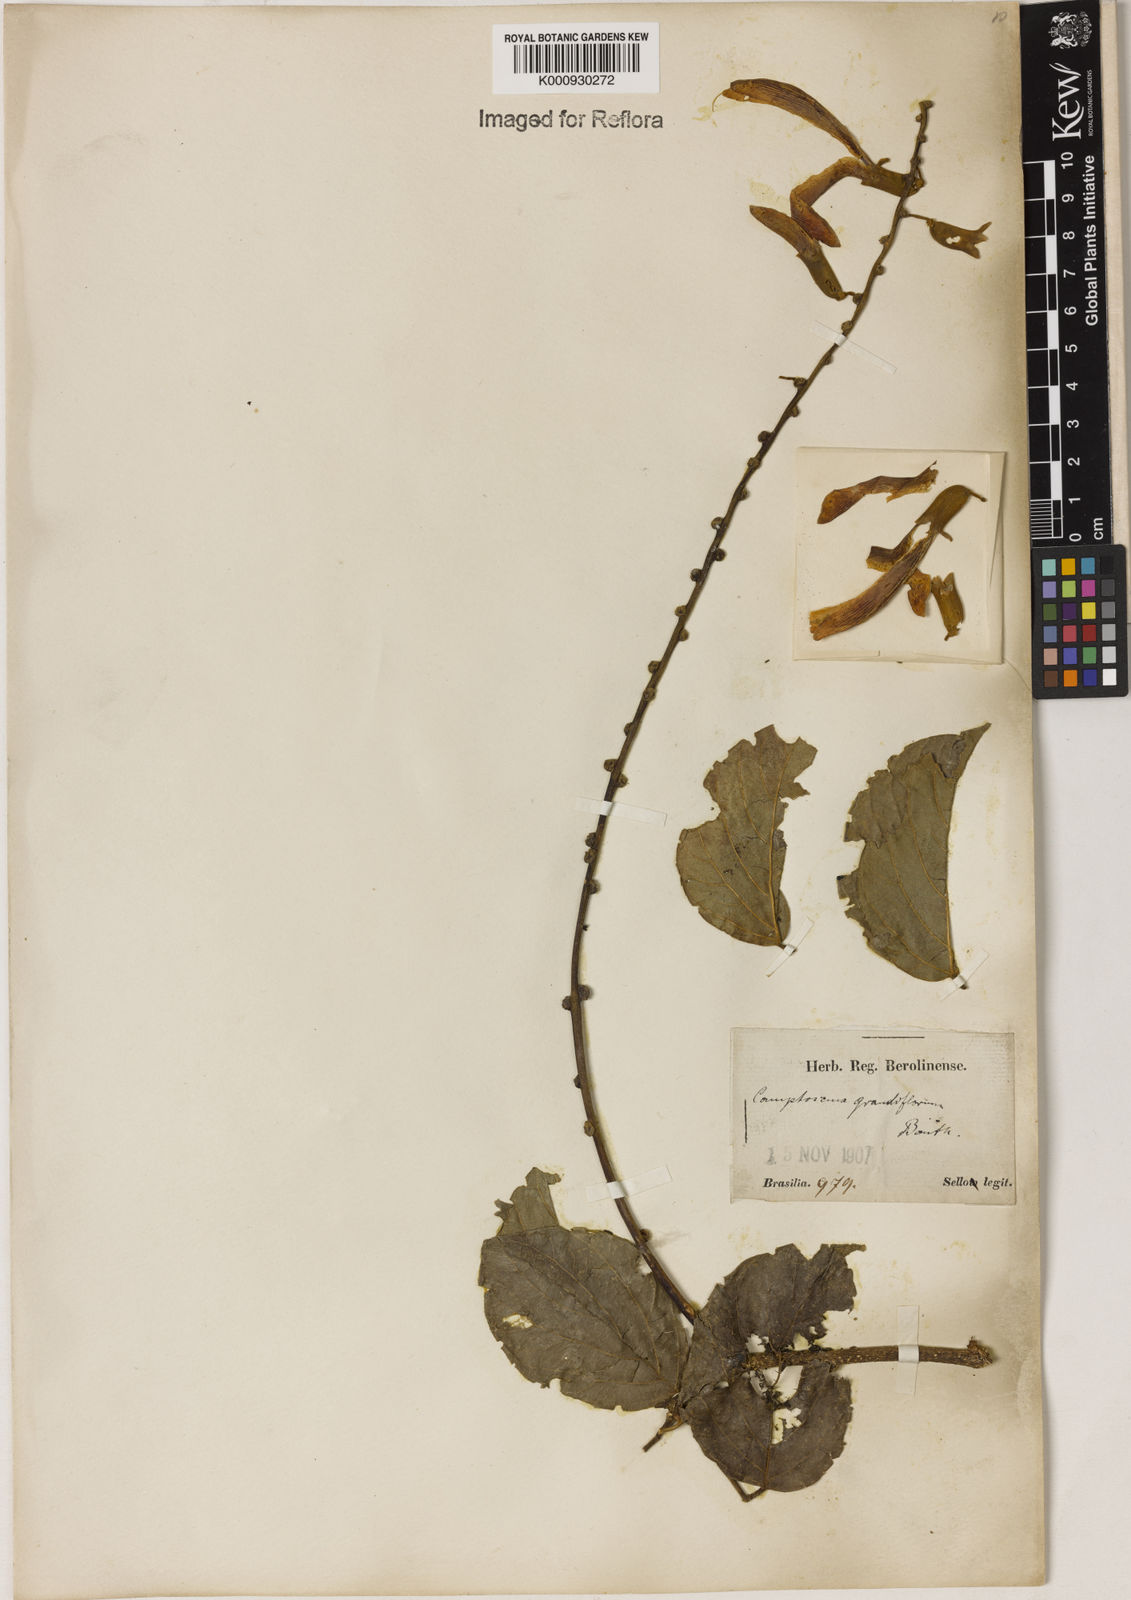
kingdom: Plantae
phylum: Tracheophyta
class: Magnoliopsida
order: Fabales
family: Fabaceae
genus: Camptosema
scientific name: Camptosema spectabile
